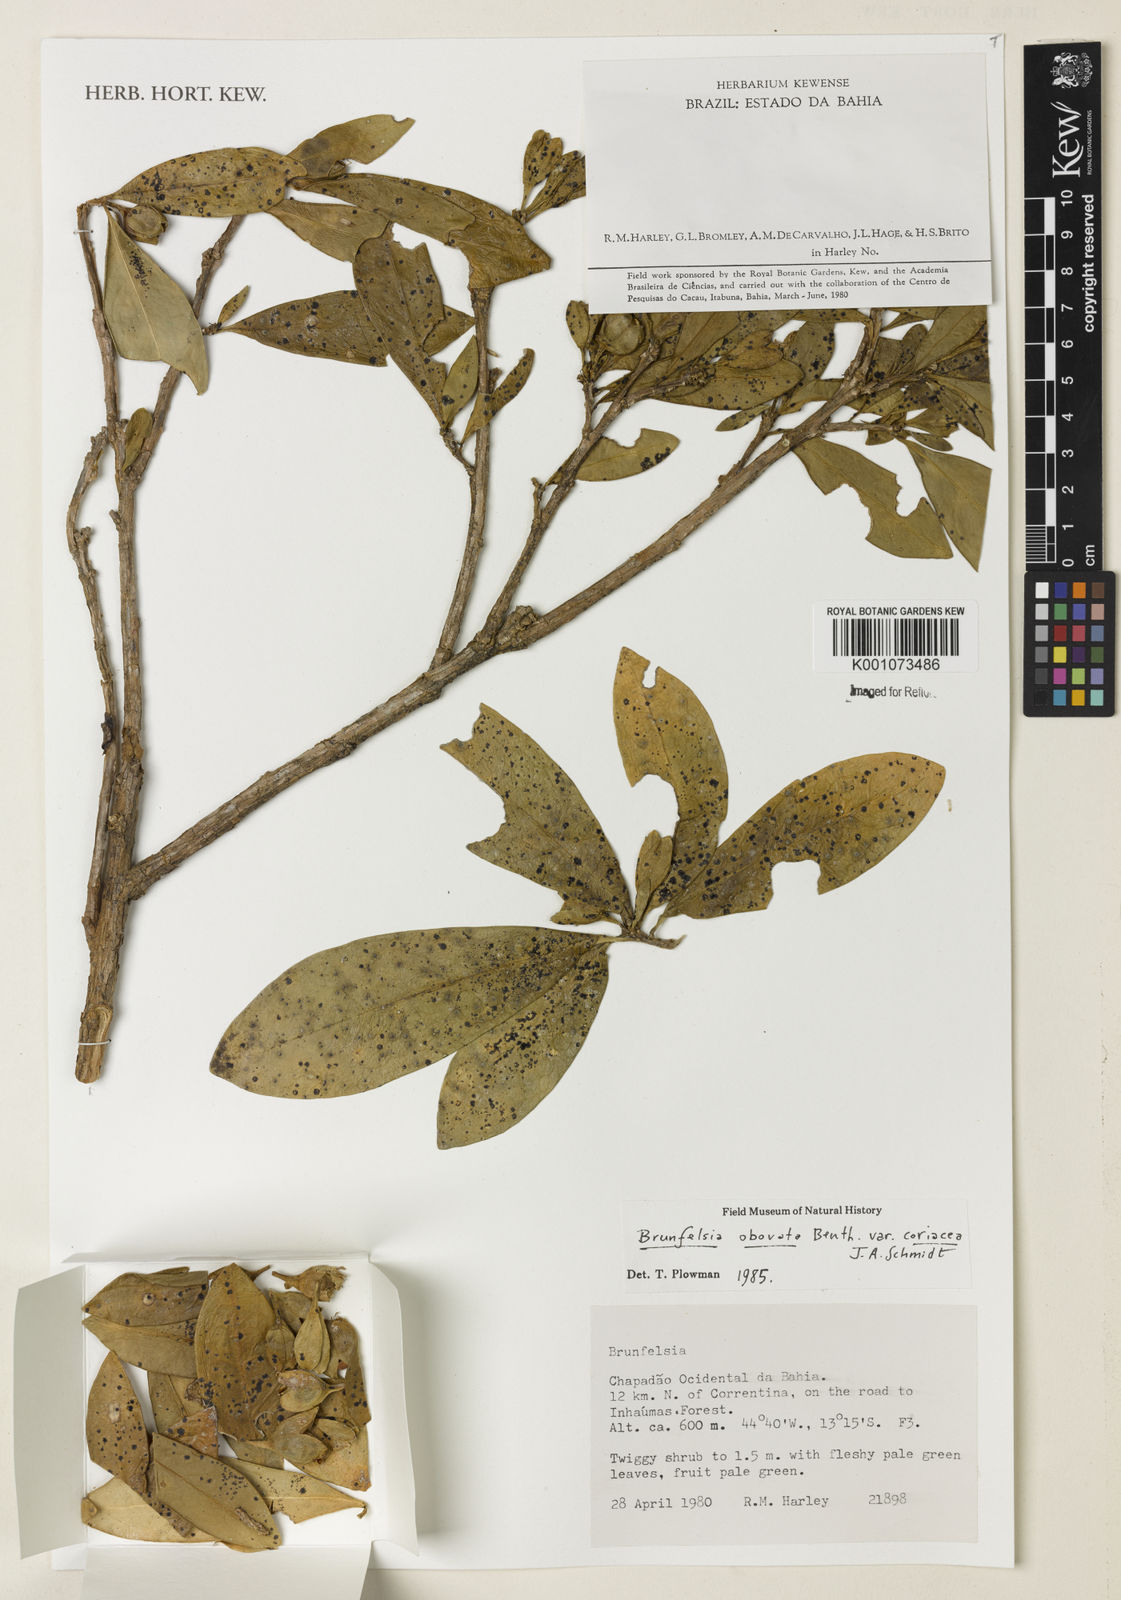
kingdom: Plantae
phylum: Tracheophyta
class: Magnoliopsida
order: Solanales
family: Solanaceae
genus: Brunfelsia
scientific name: Brunfelsia obovata
